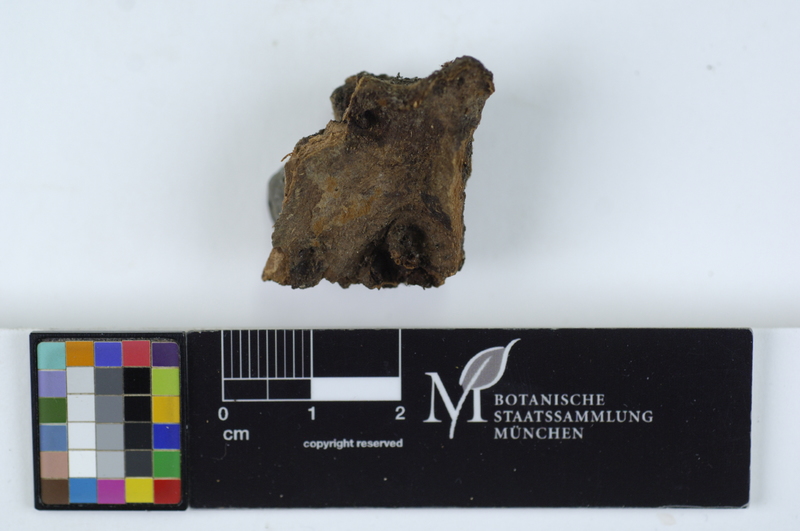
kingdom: Fungi
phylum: Basidiomycota
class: Agaricomycetes
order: Cantharellales
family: Botryobasidiaceae
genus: Botryobasidium
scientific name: Botryobasidium rubiginosum
